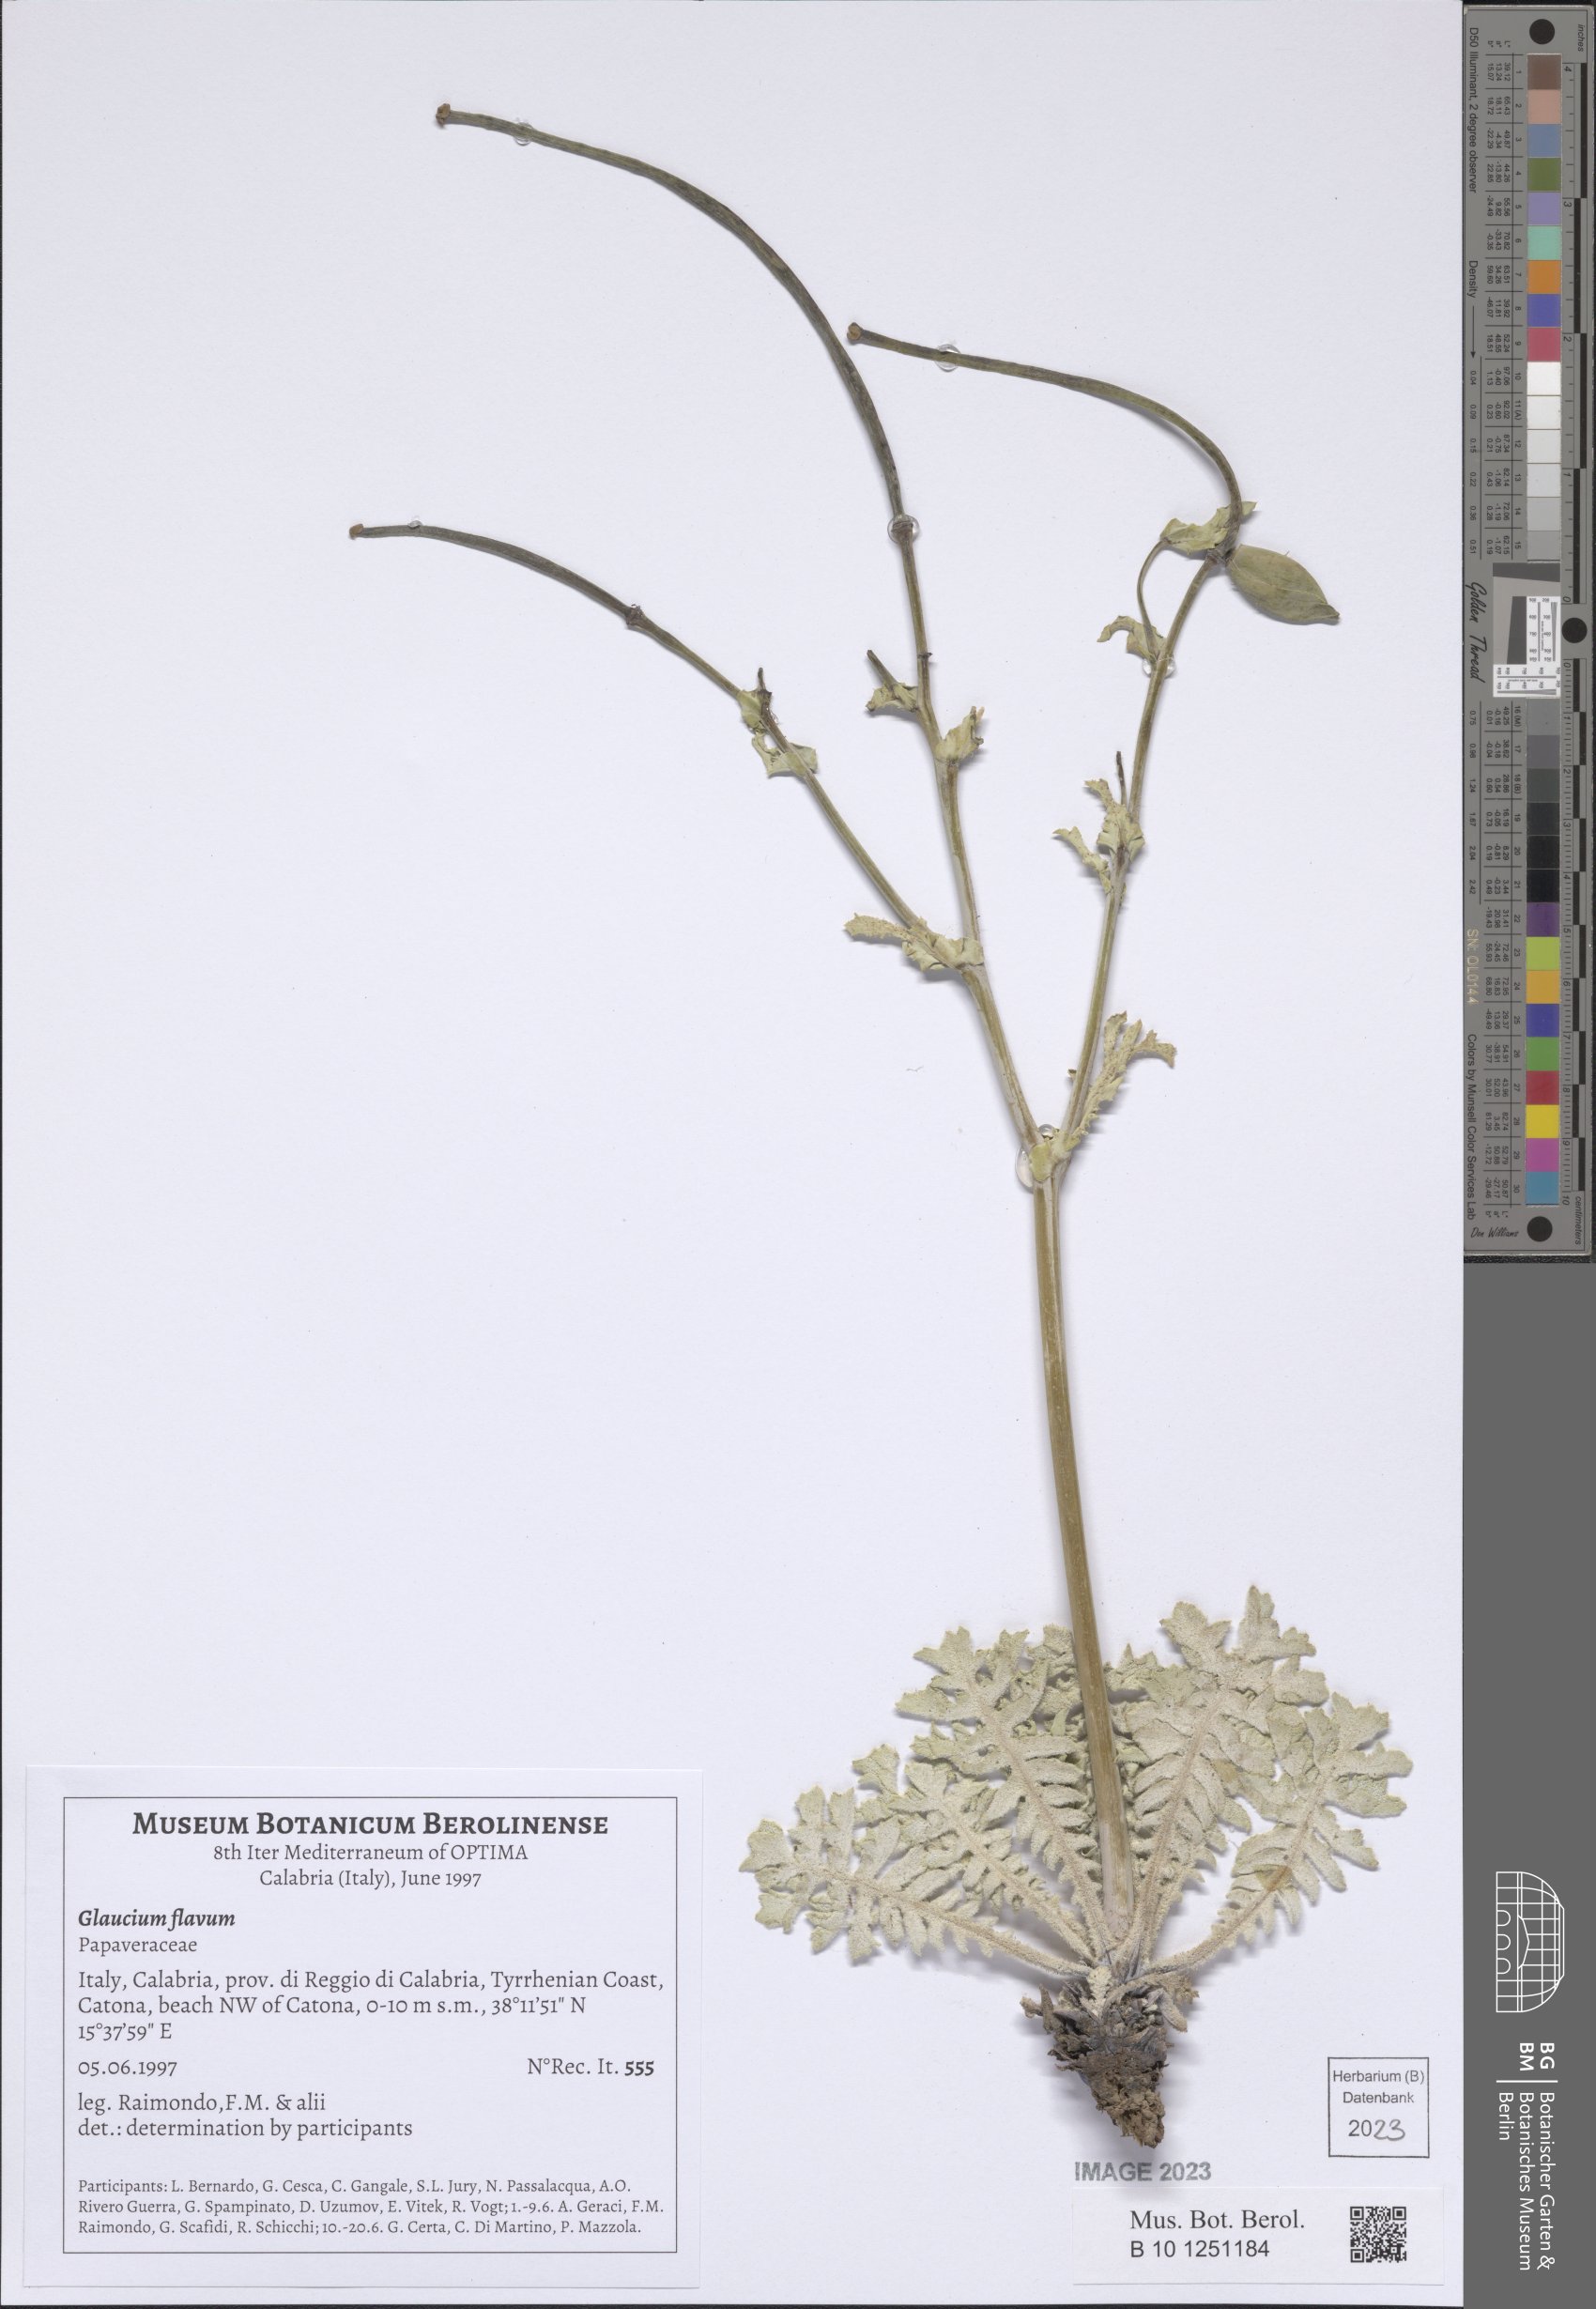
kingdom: Plantae
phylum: Tracheophyta
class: Magnoliopsida
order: Ranunculales
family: Papaveraceae
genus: Glaucium
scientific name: Glaucium flavum
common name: Yellow horned-poppy
